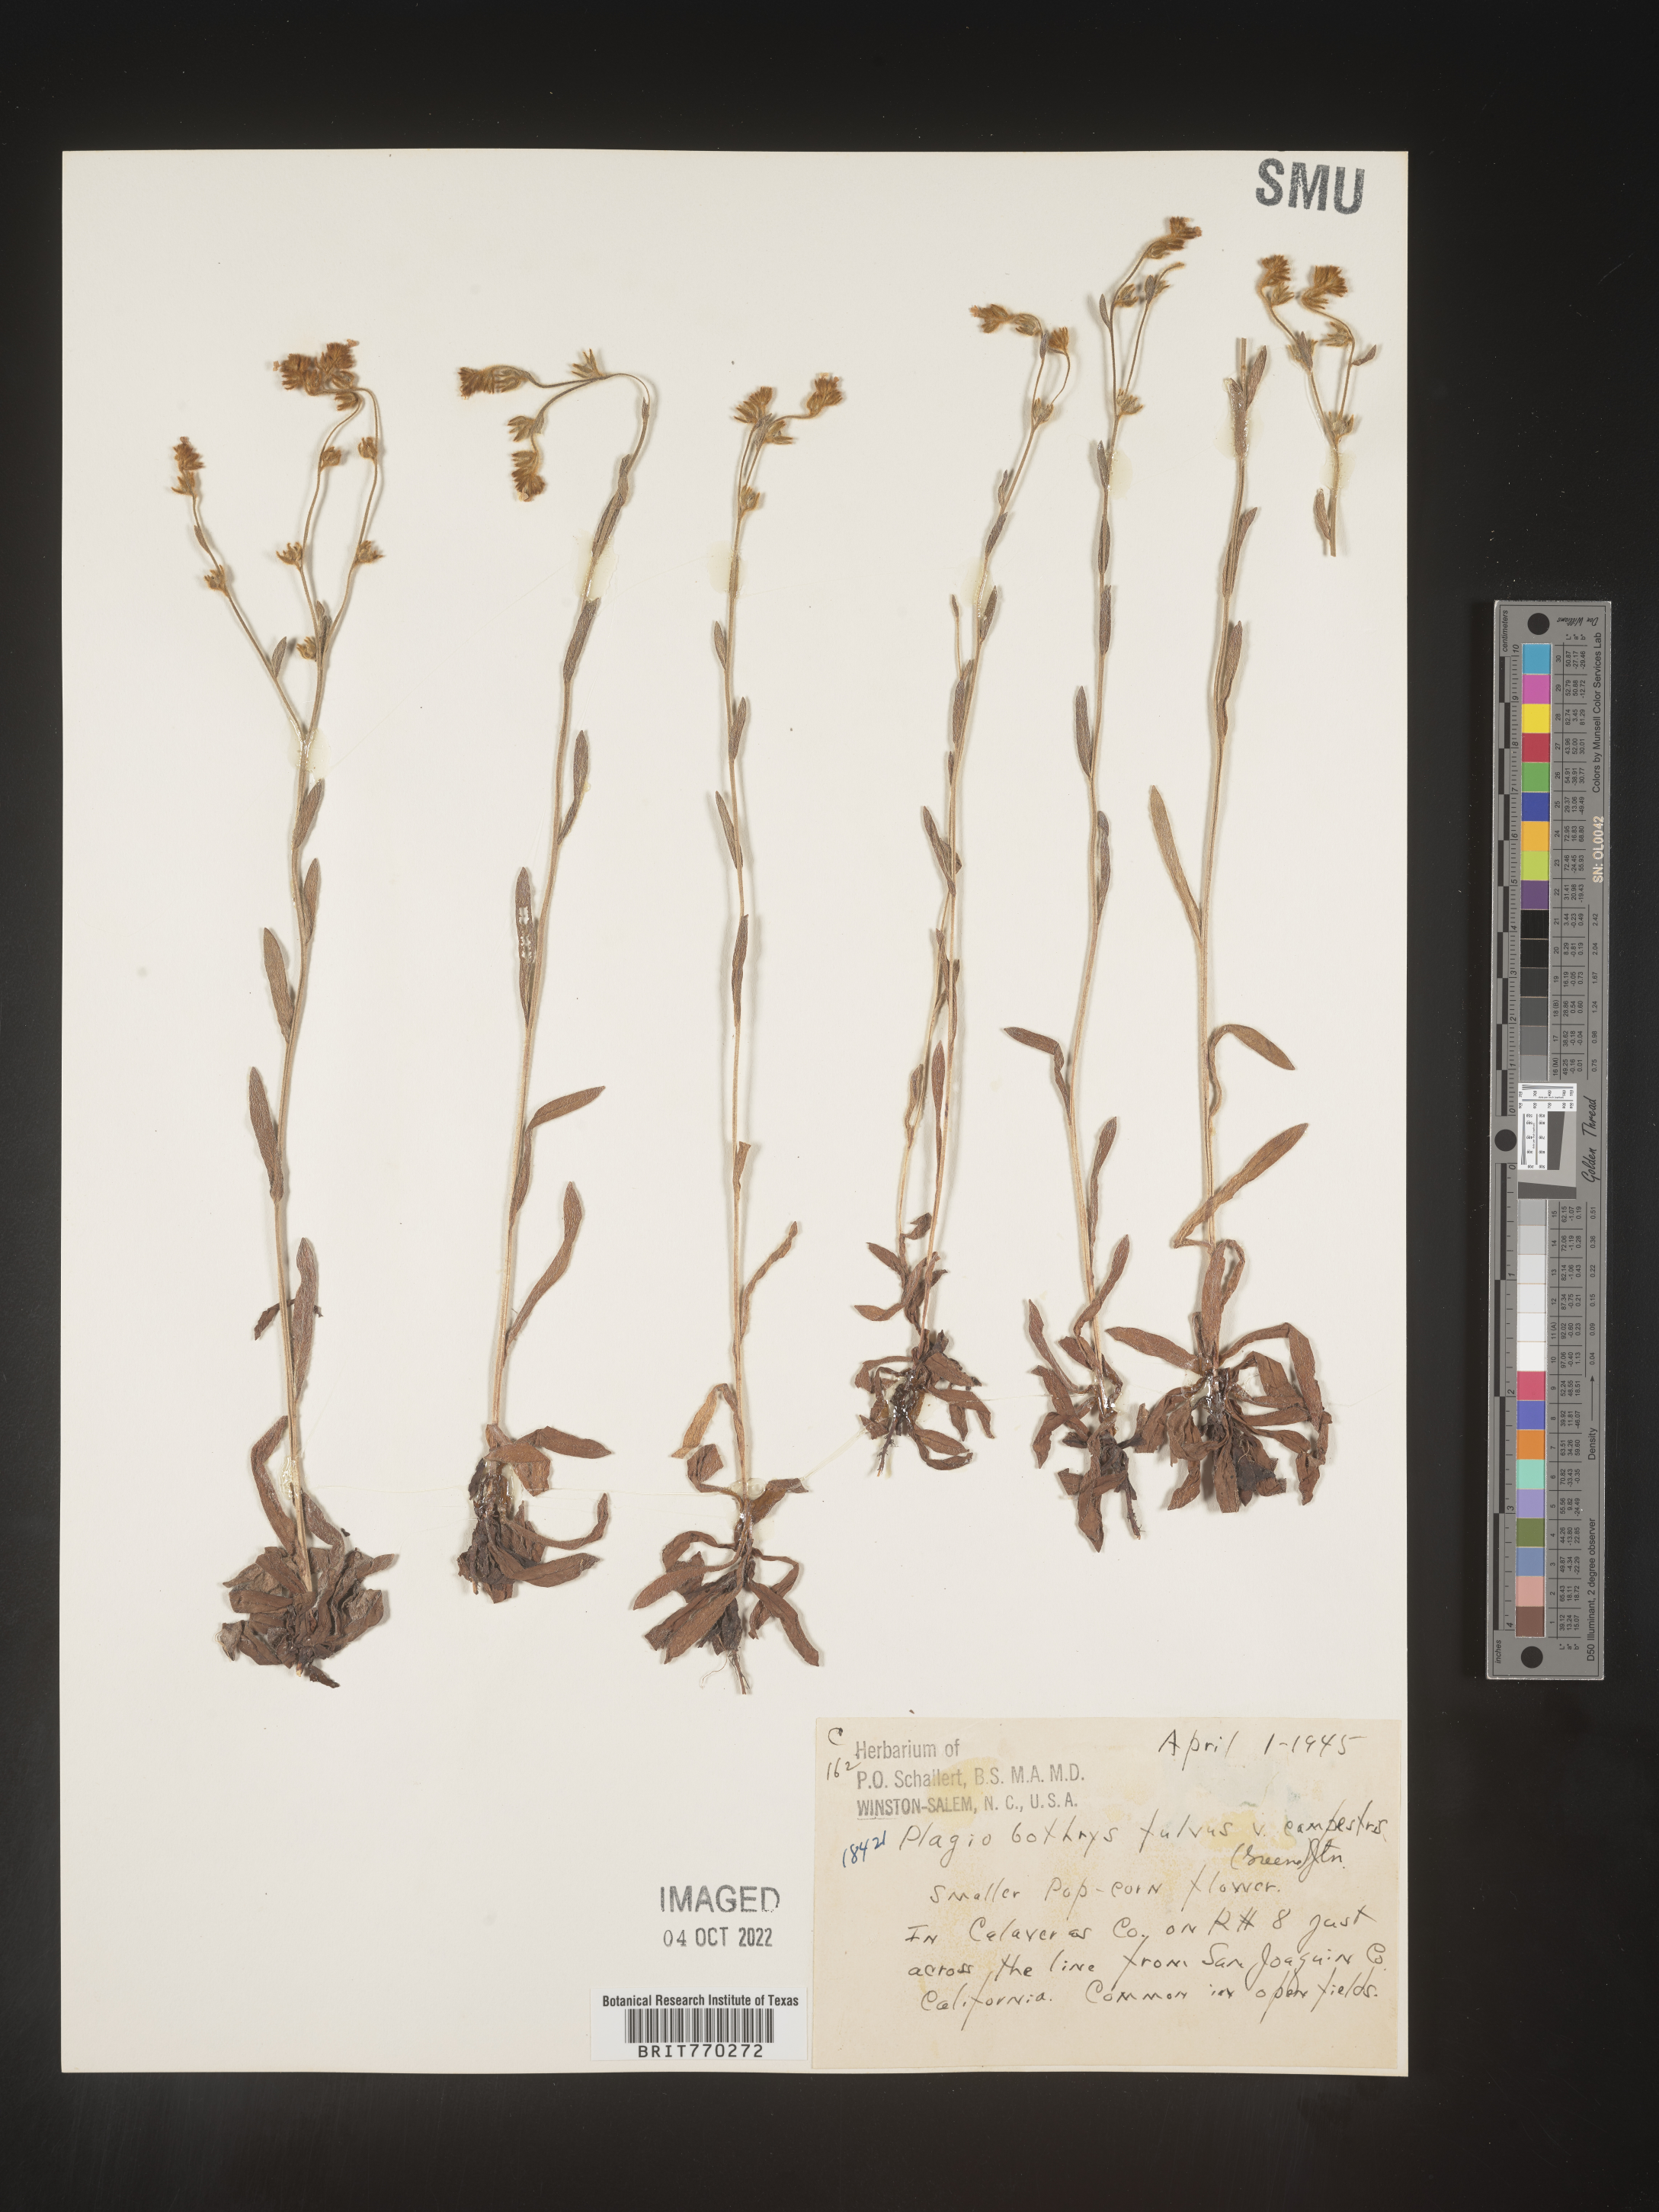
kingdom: Plantae
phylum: Tracheophyta
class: Magnoliopsida
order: Boraginales
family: Boraginaceae
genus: Plagiobothrys
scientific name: Plagiobothrys
